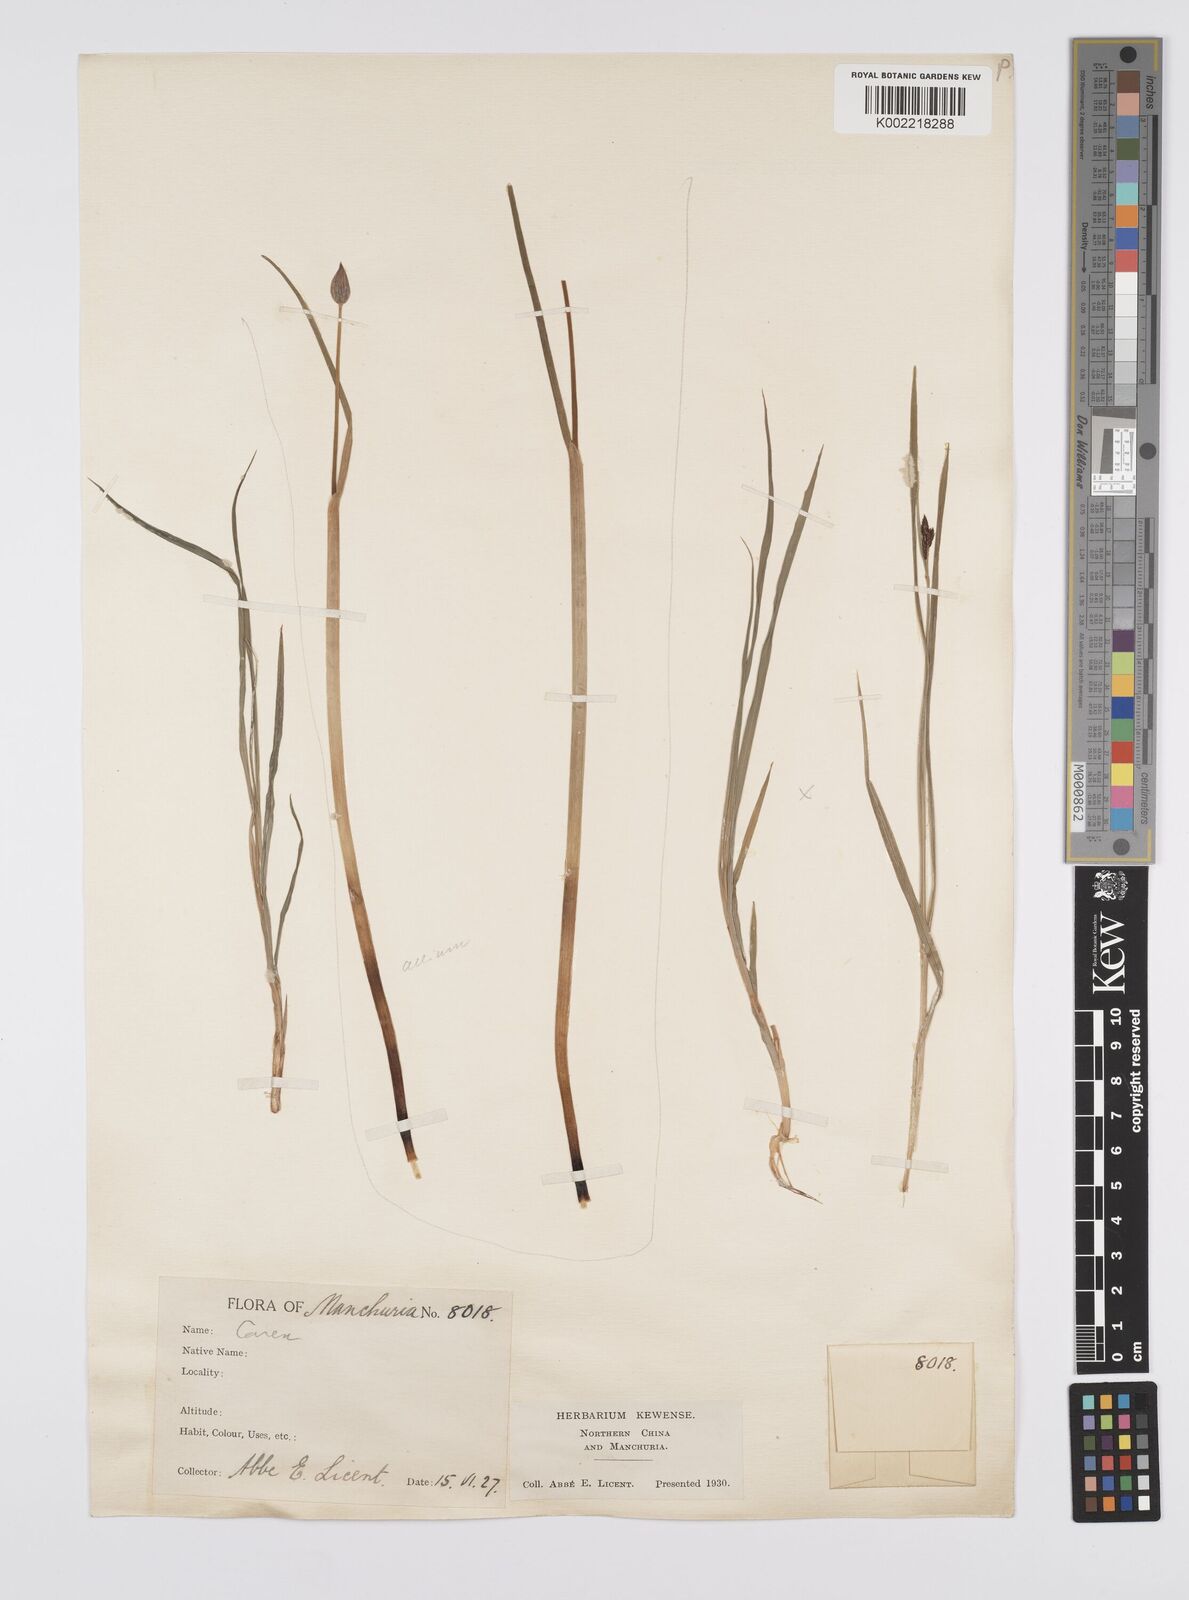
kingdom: Plantae
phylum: Tracheophyta
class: Liliopsida
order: Poales
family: Cyperaceae
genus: Carex
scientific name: Carex norvegica
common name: Close-headed alpine-sedge
